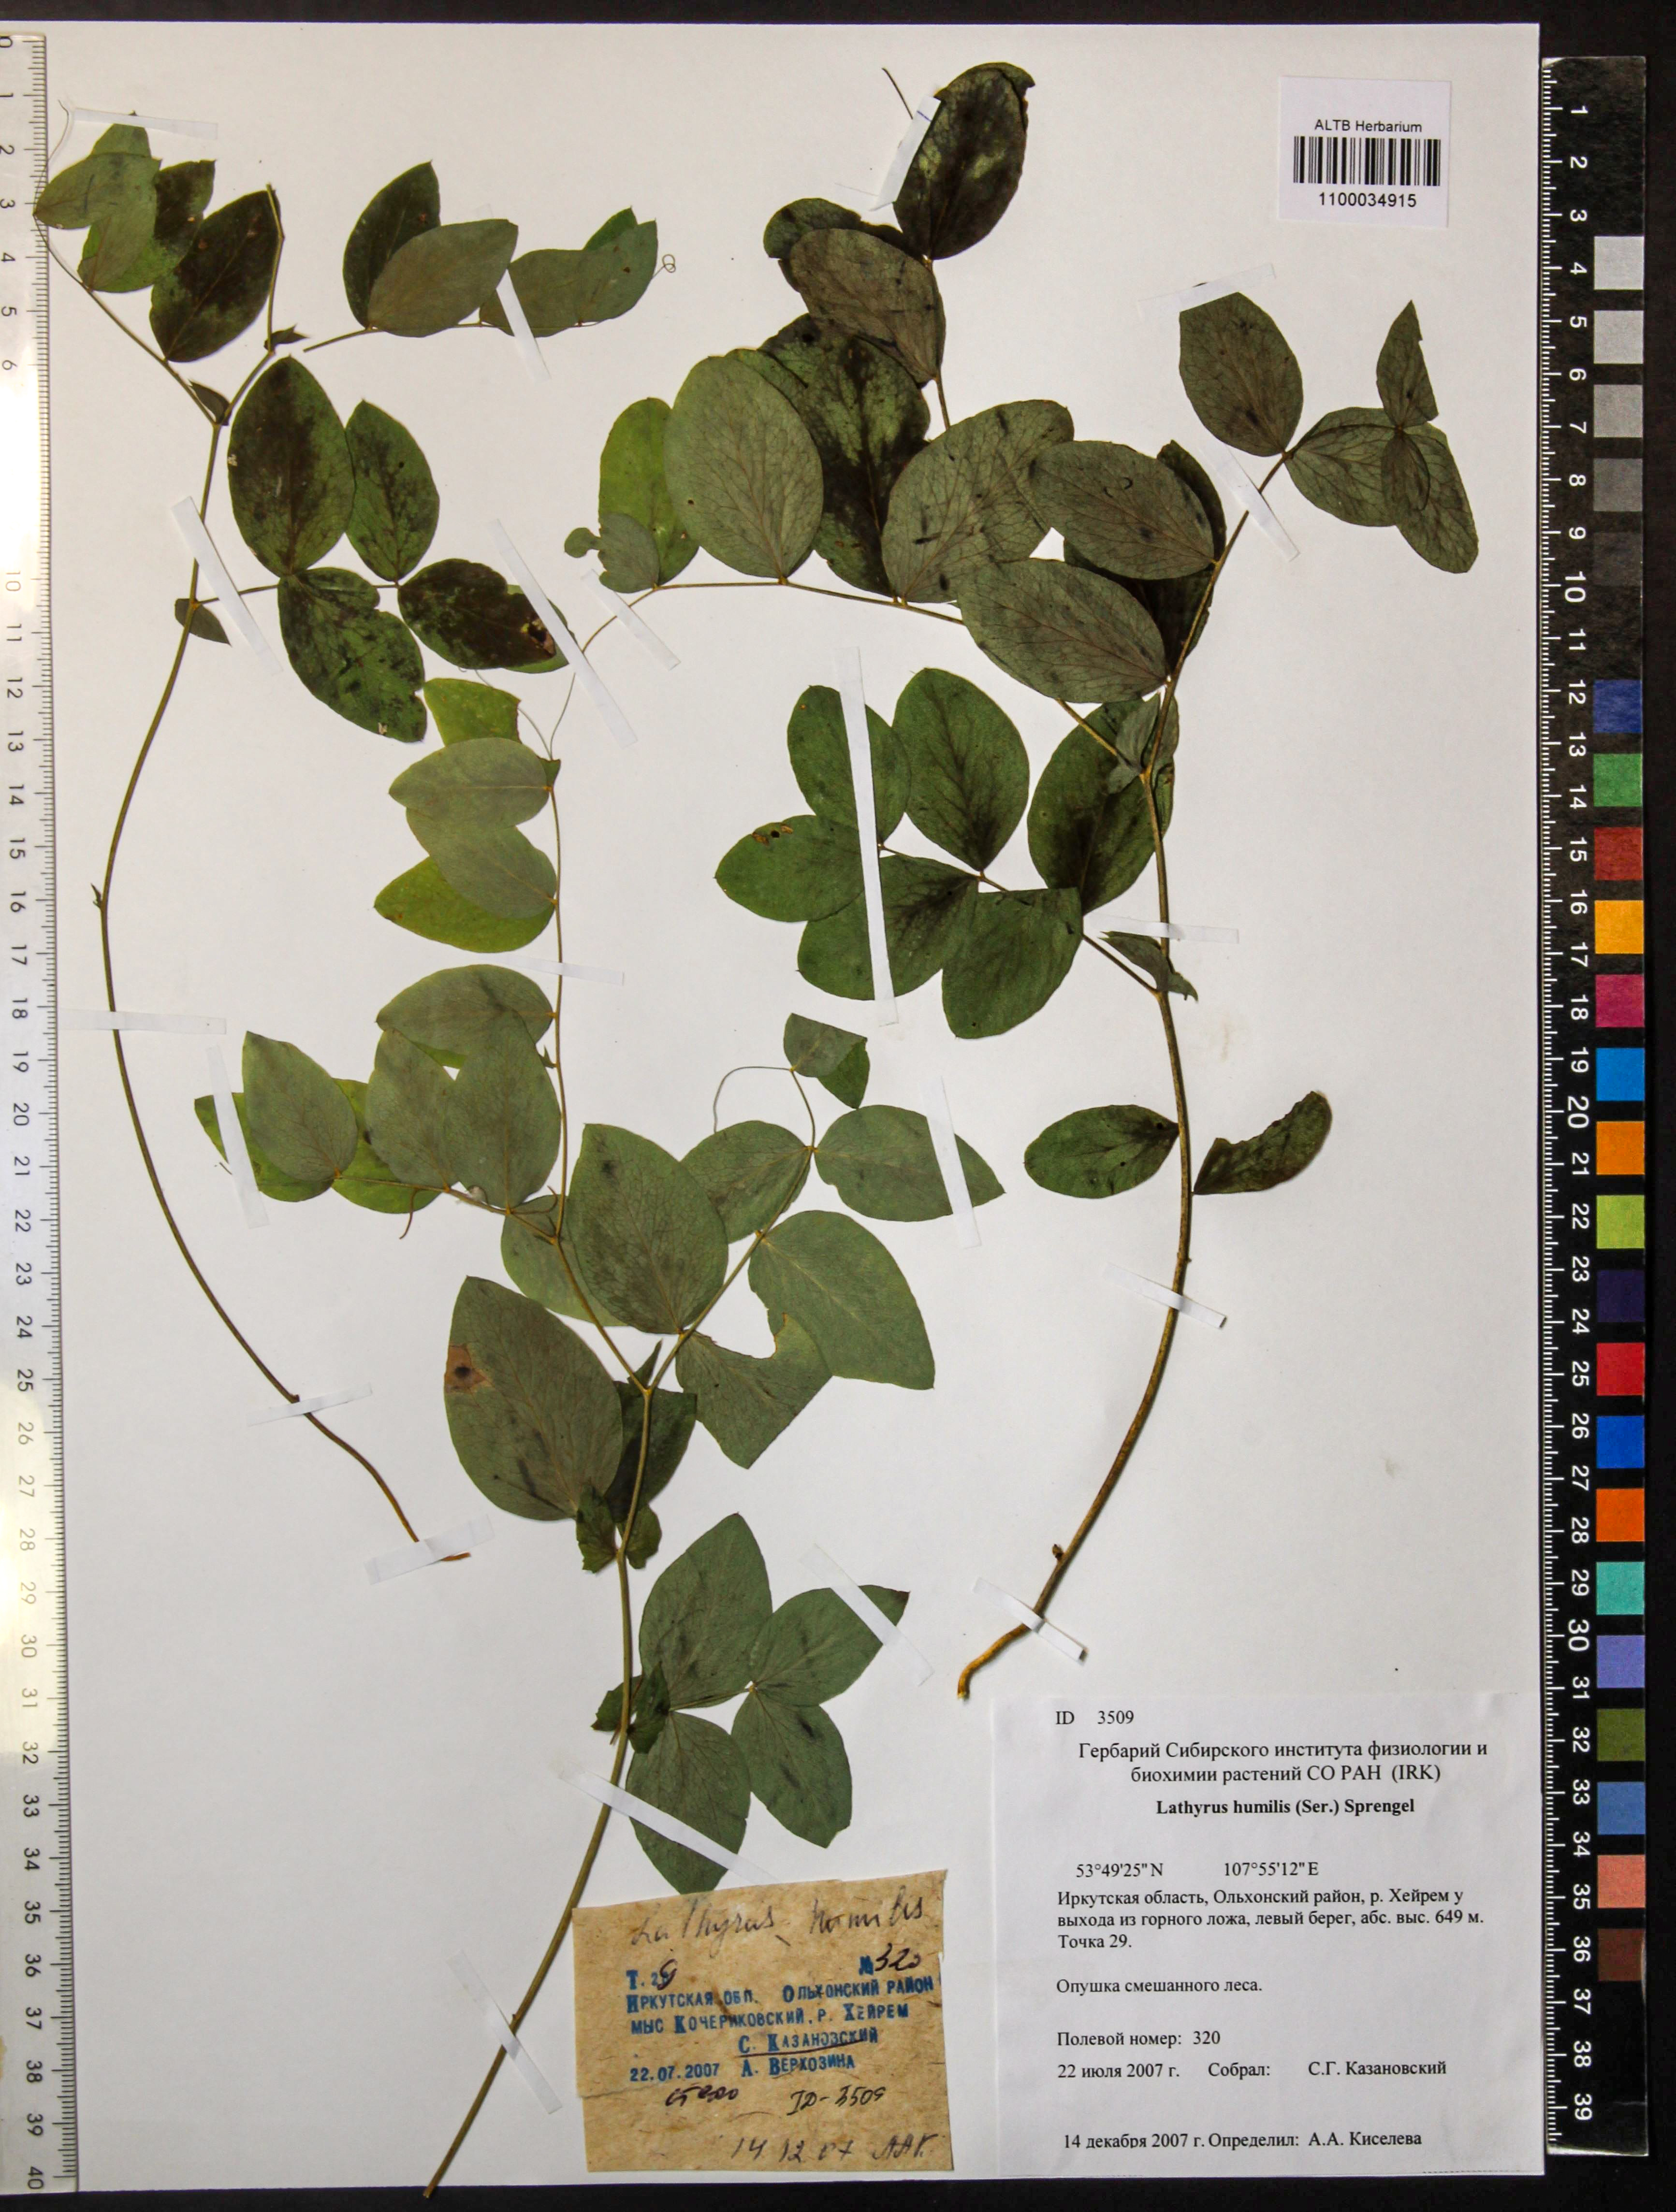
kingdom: Plantae
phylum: Tracheophyta
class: Magnoliopsida
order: Fabales
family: Fabaceae
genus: Lathyrus
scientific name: Lathyrus humilis
